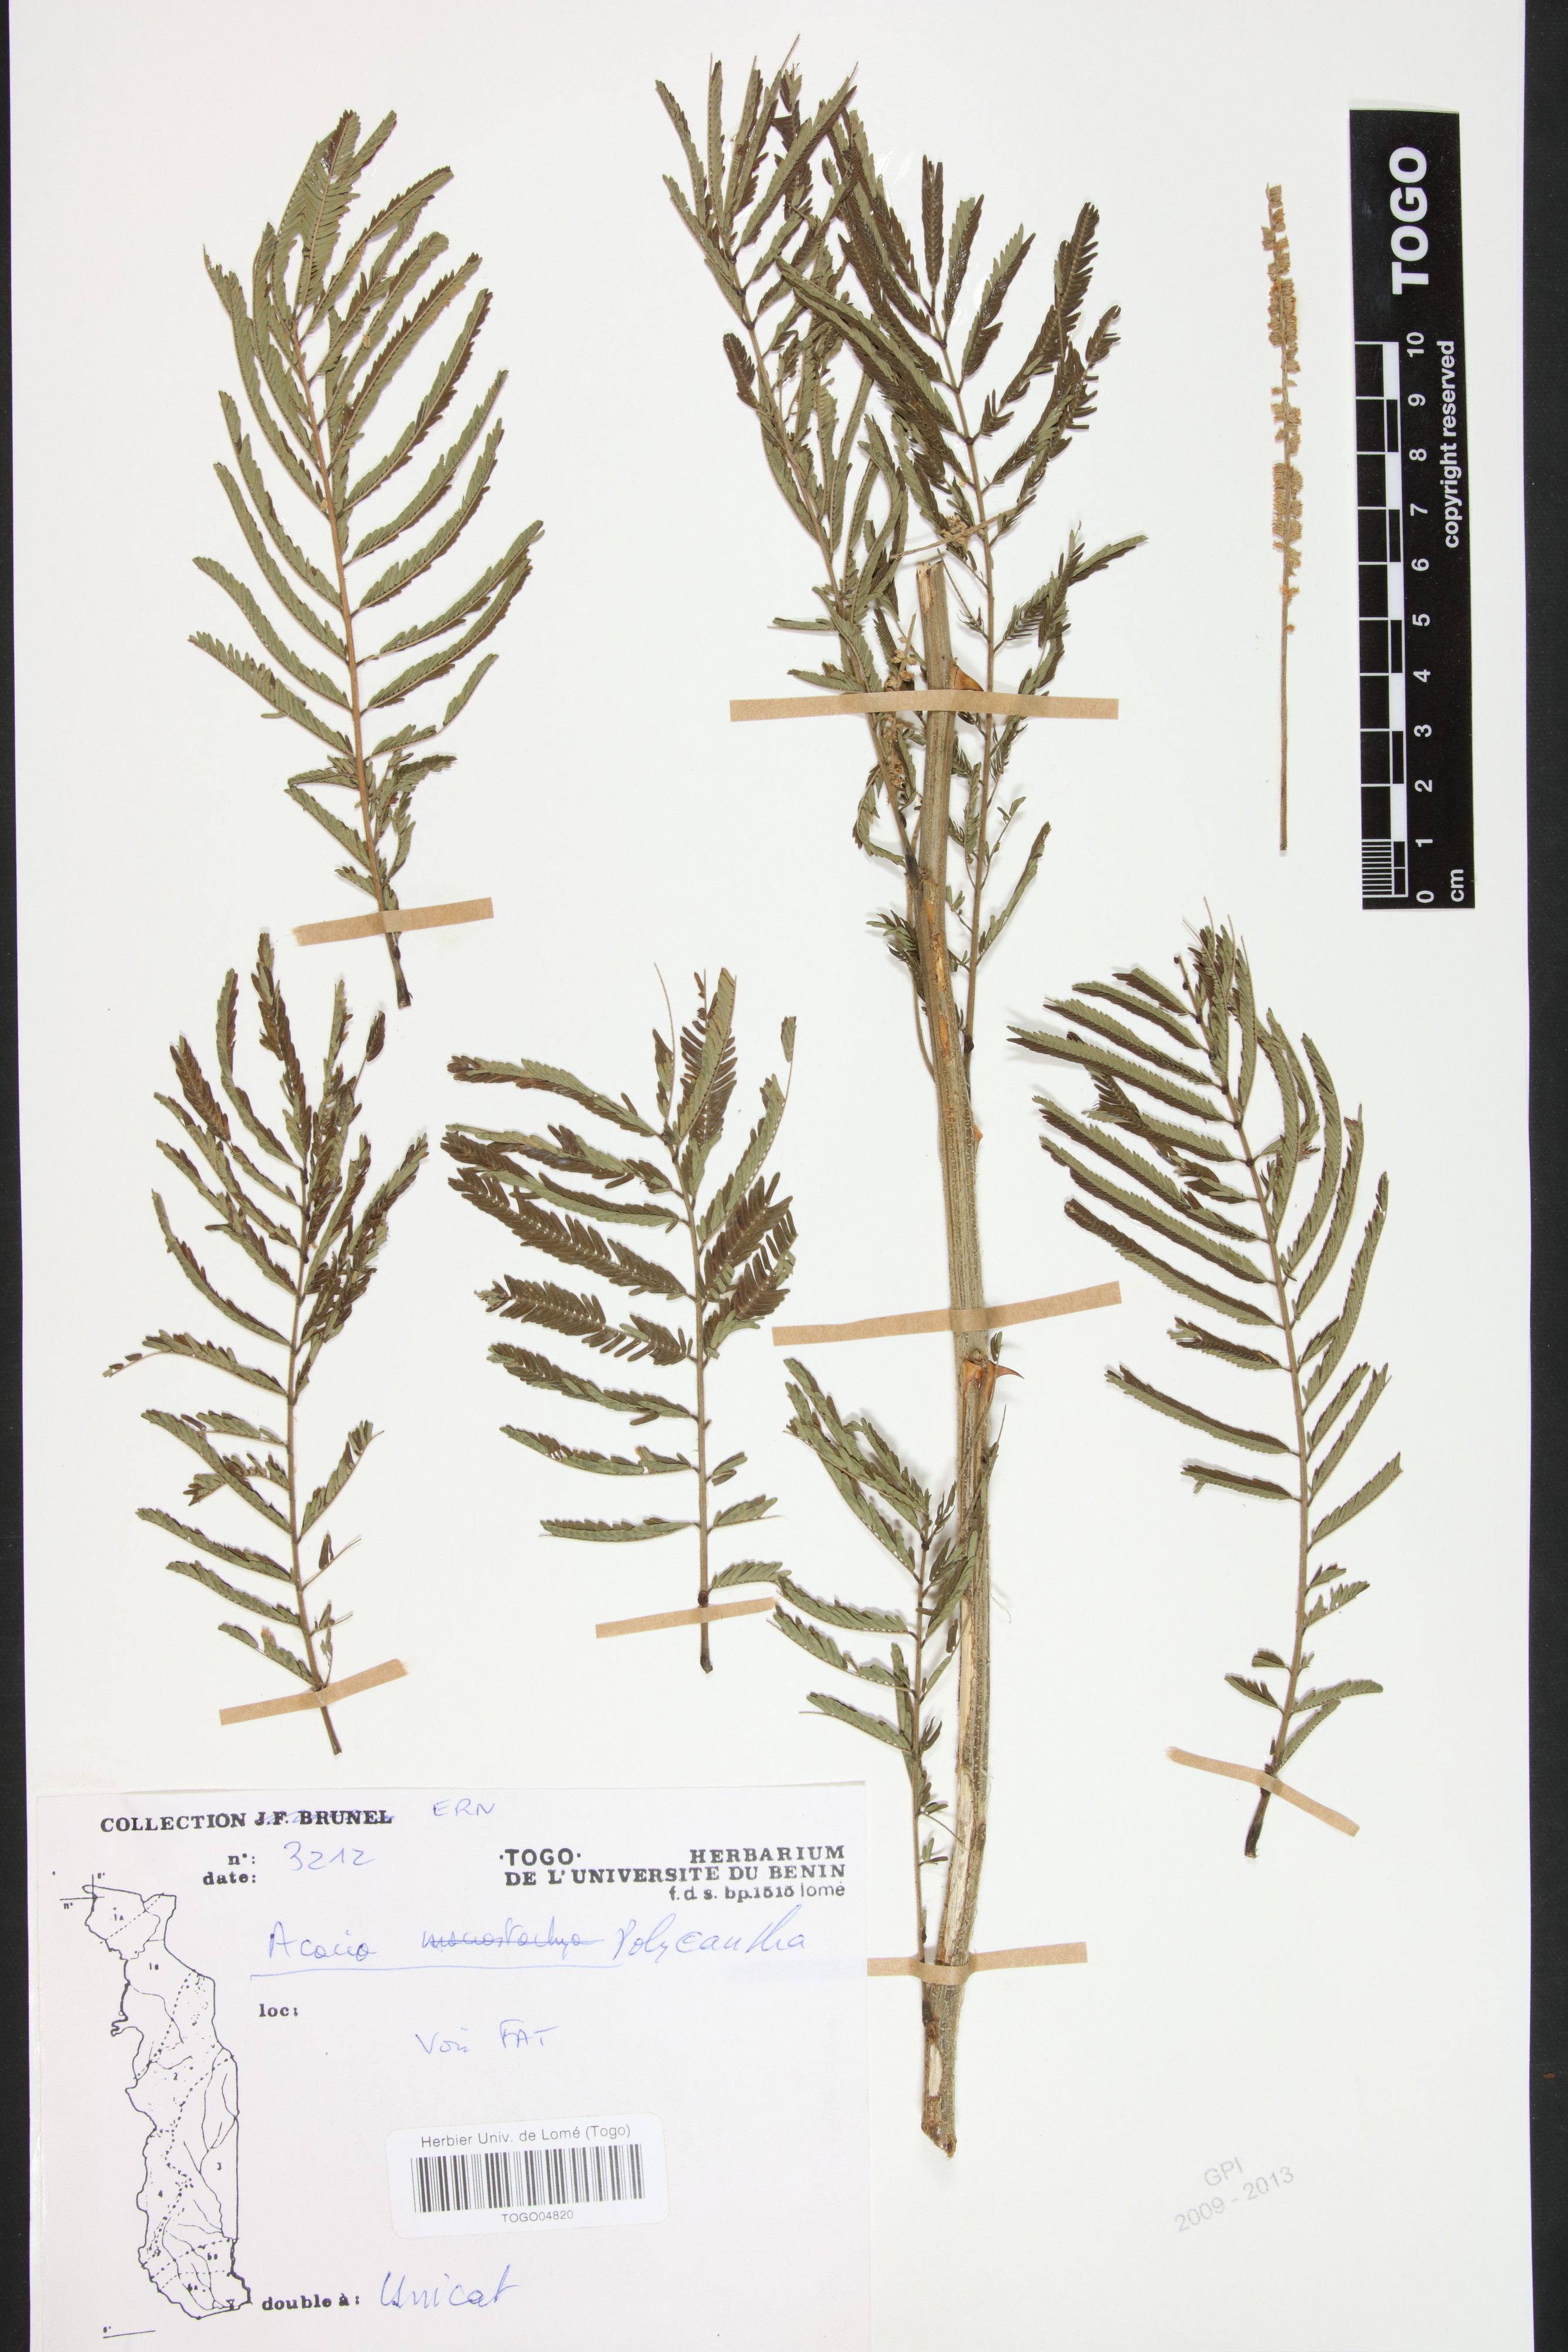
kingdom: Plantae
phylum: Tracheophyta
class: Magnoliopsida
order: Fabales
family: Fabaceae
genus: Senegalia
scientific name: Senegalia polyacantha
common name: Whitethorn
